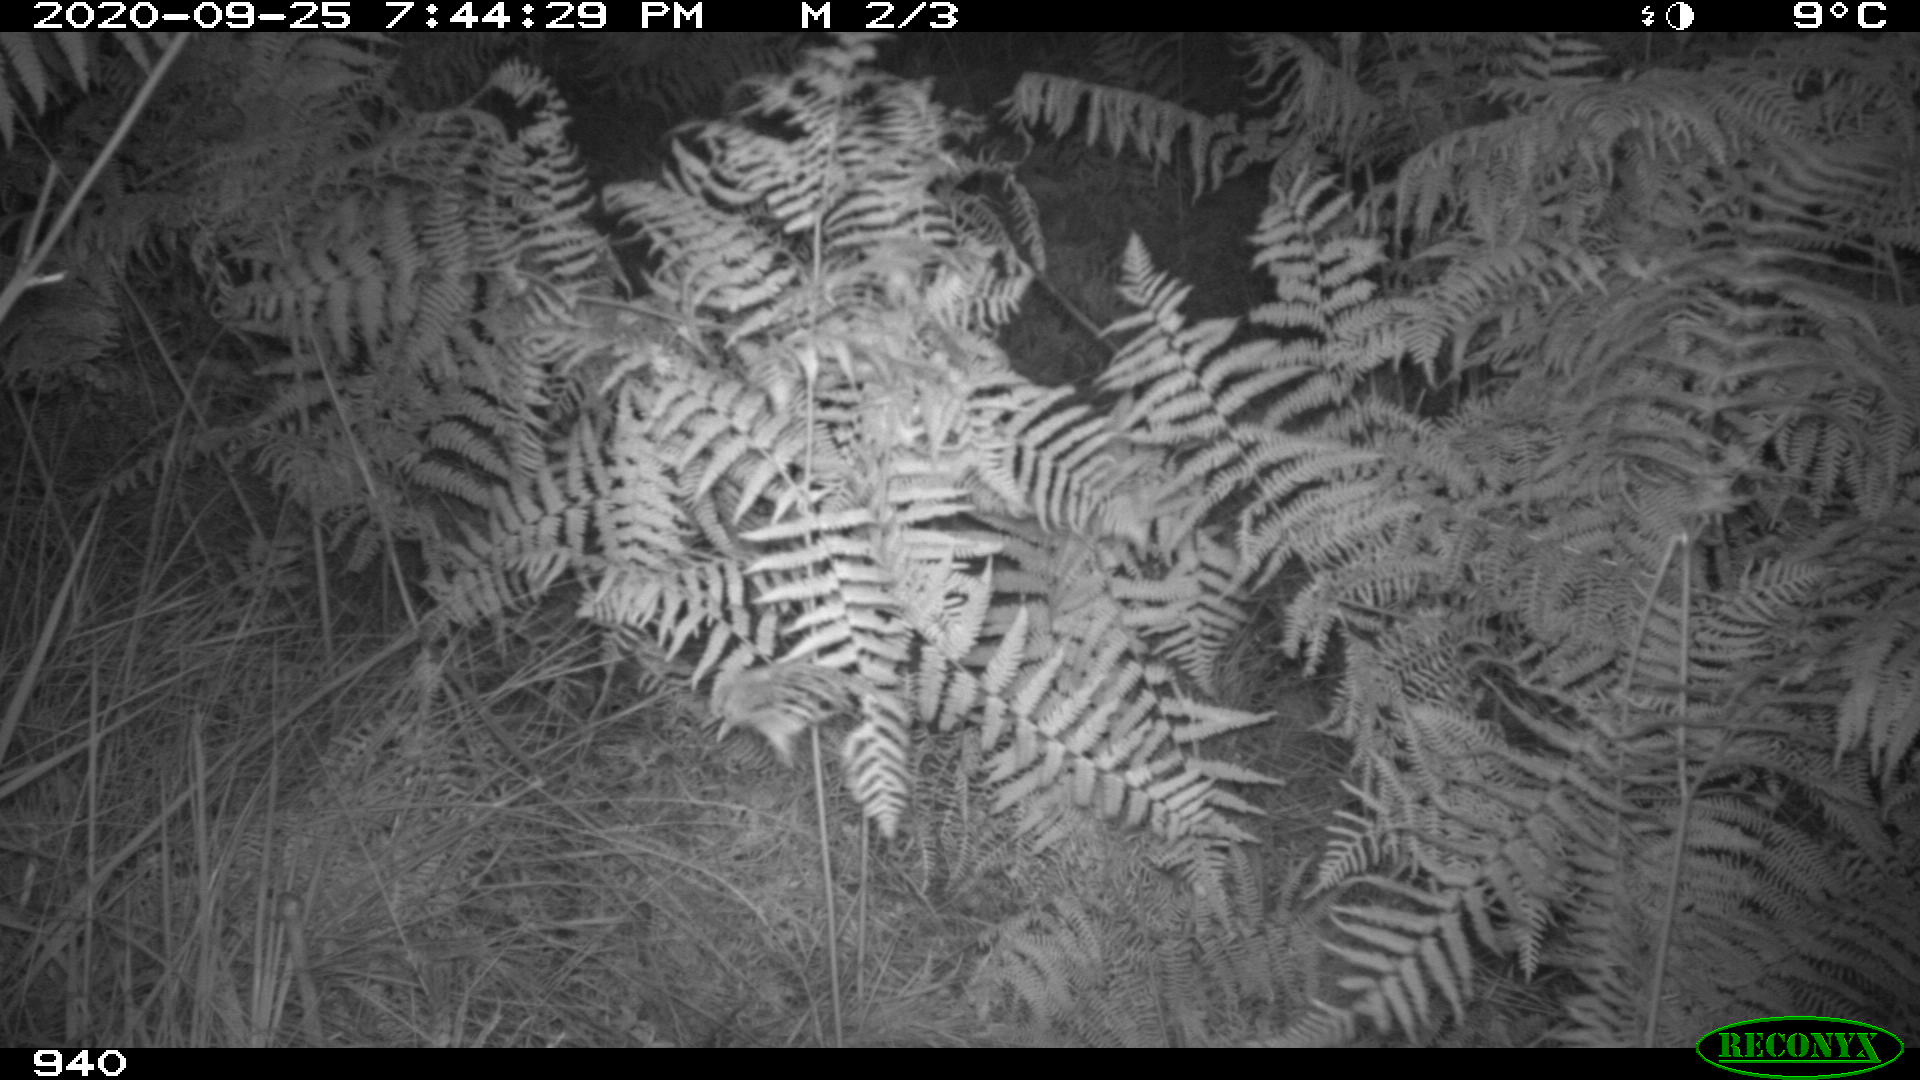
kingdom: Animalia
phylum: Chordata
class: Mammalia
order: Artiodactyla
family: Suidae
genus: Sus
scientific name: Sus scrofa
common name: Wild boar
